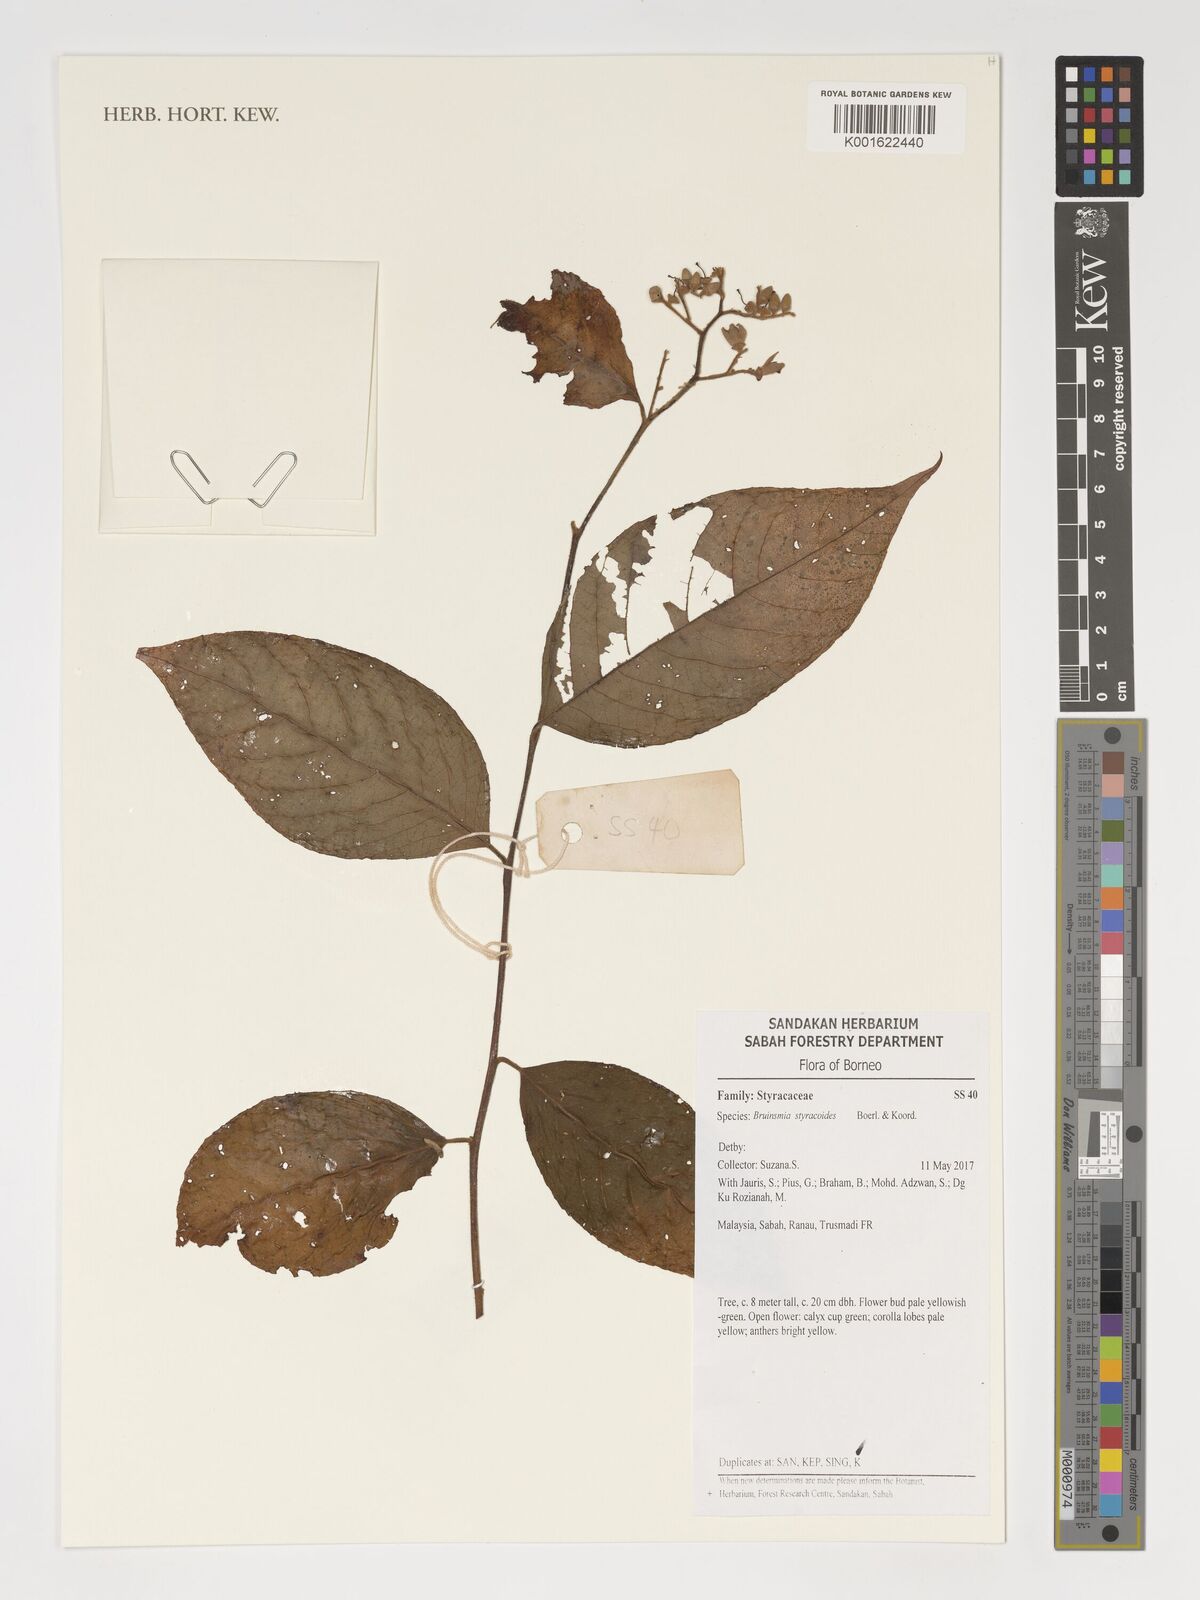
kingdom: Plantae
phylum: Tracheophyta
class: Magnoliopsida
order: Ericales
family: Styracaceae
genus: Bruinsmia
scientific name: Bruinsmia styracoides
